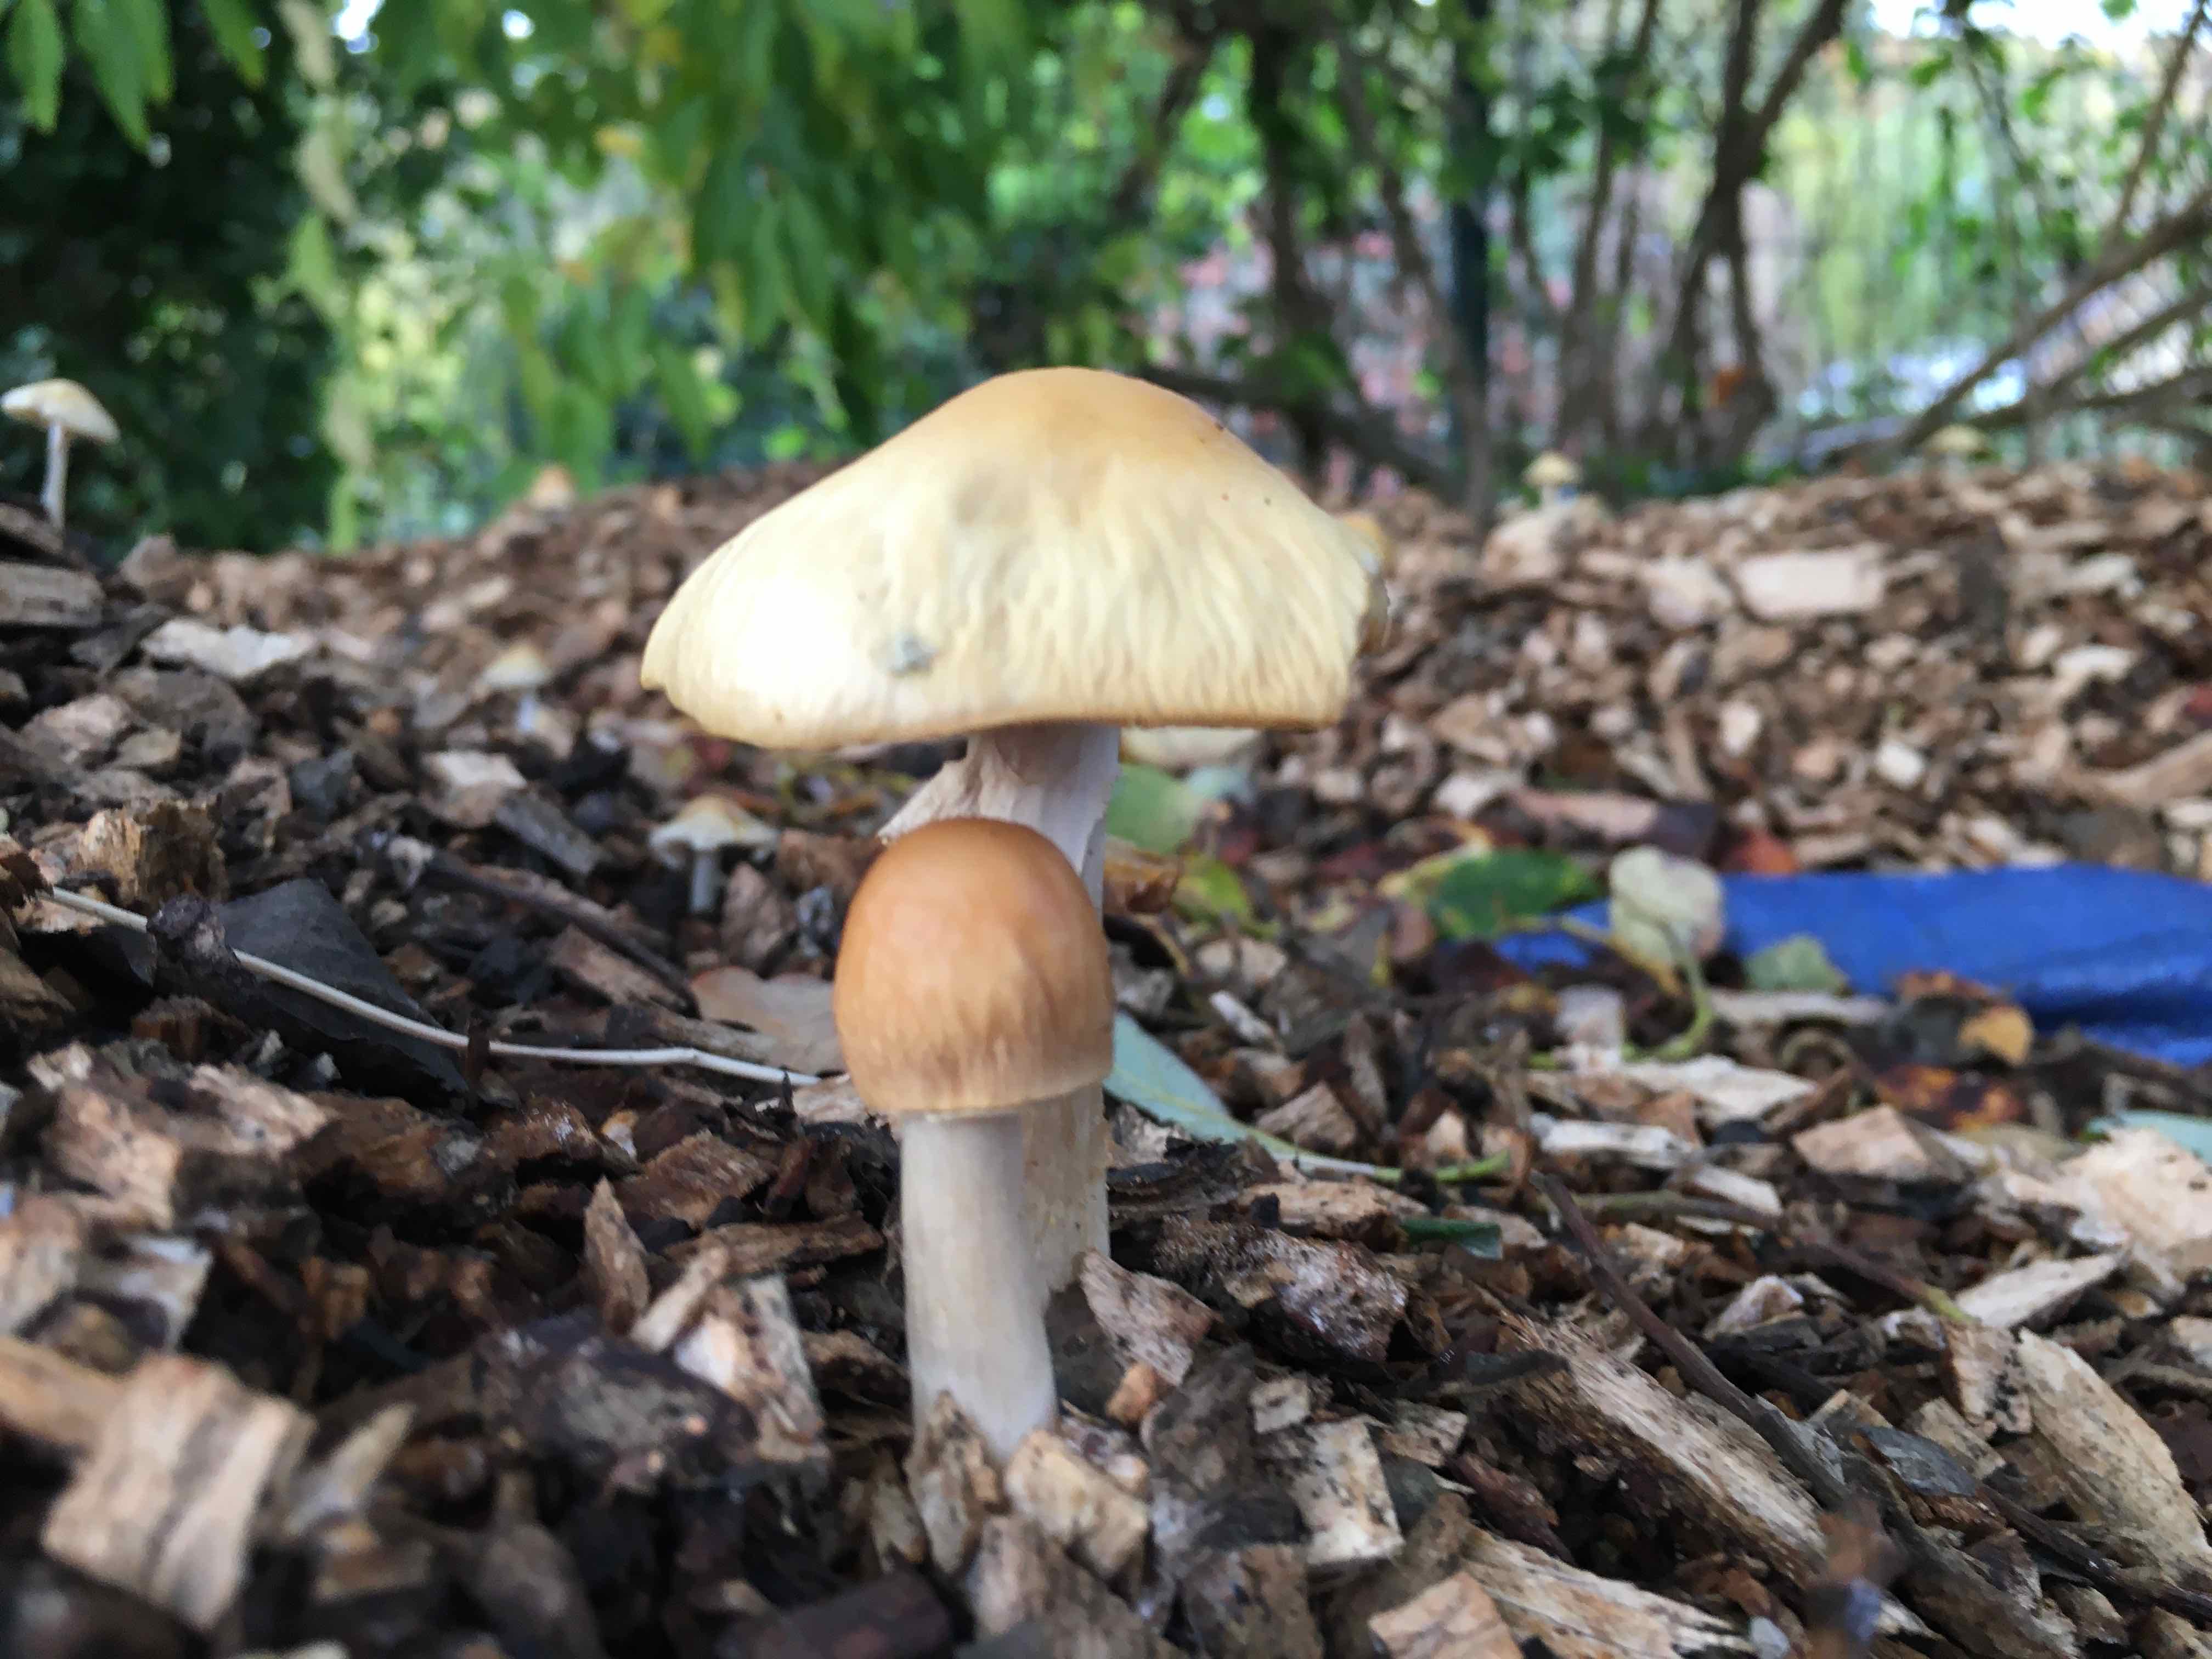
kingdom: Fungi
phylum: Basidiomycota
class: Agaricomycetes
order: Agaricales
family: Strophariaceae
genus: Agrocybe
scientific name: Agrocybe rivulosa
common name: året agerhat
